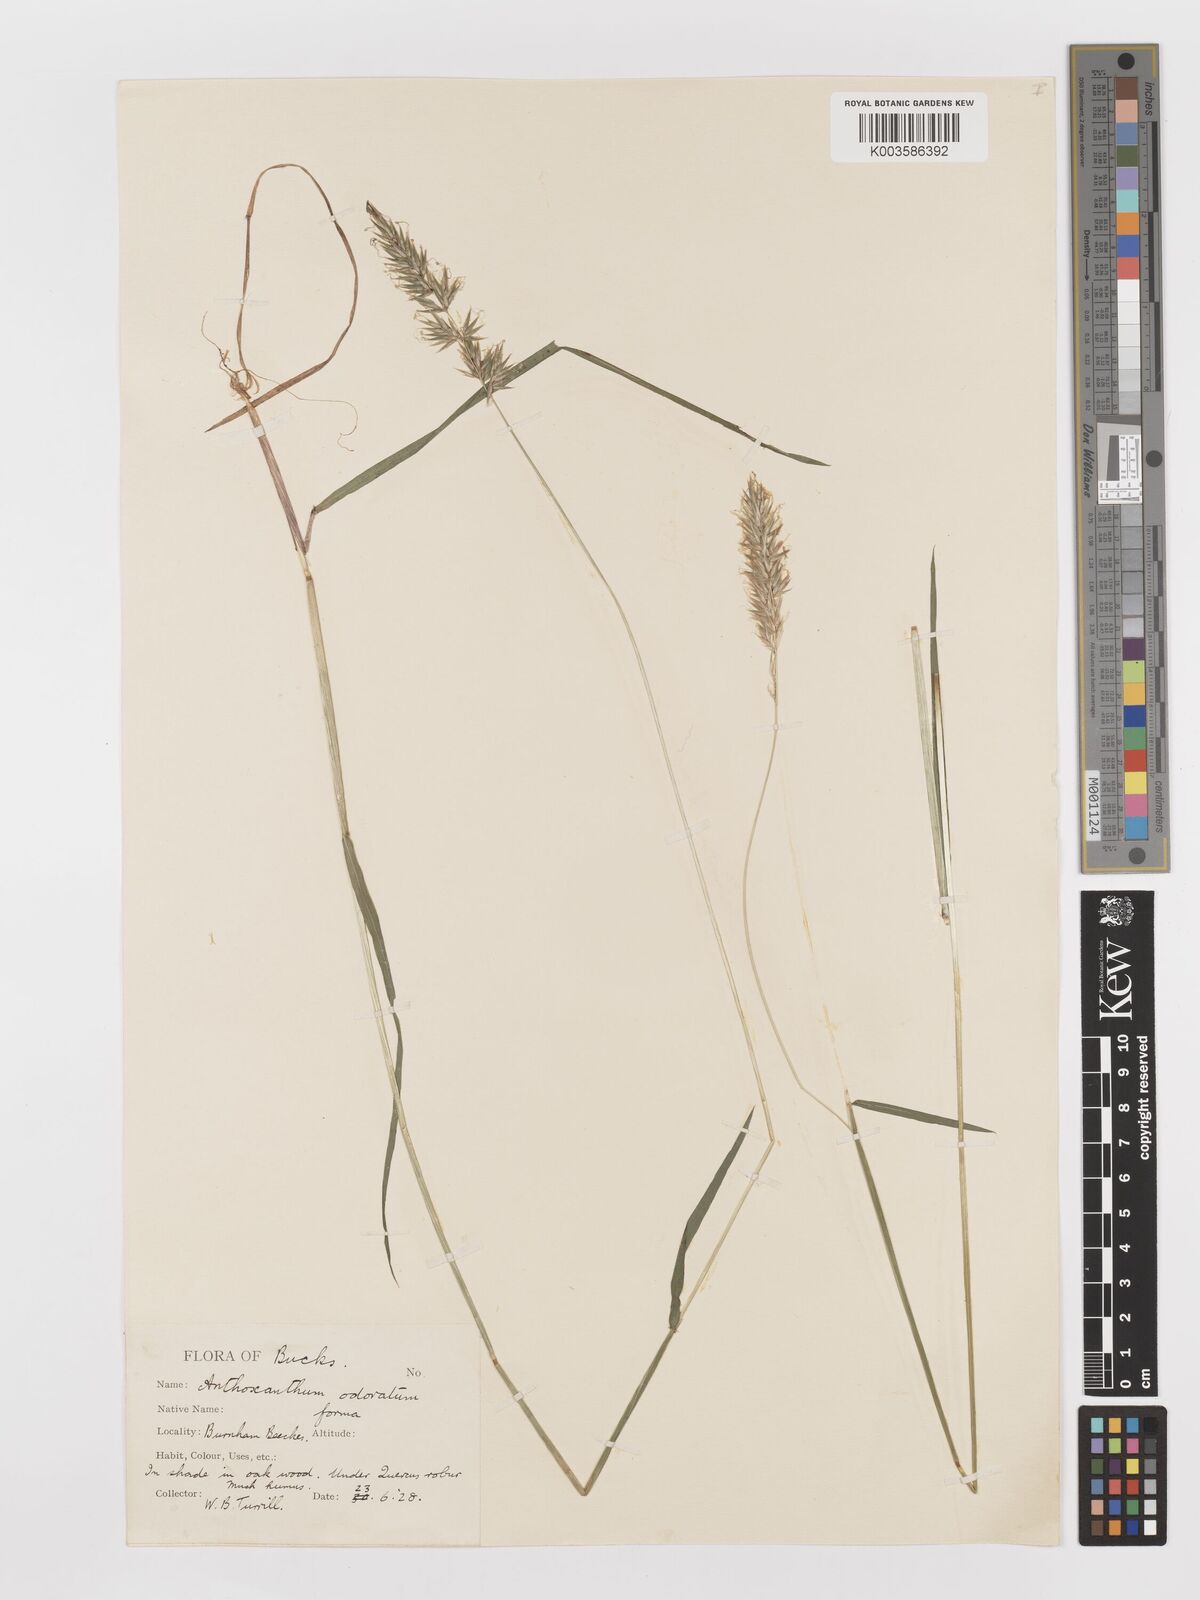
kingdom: Plantae
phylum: Tracheophyta
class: Liliopsida
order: Poales
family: Poaceae
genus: Anthoxanthum
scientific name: Anthoxanthum odoratum
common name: Sweet vernalgrass
